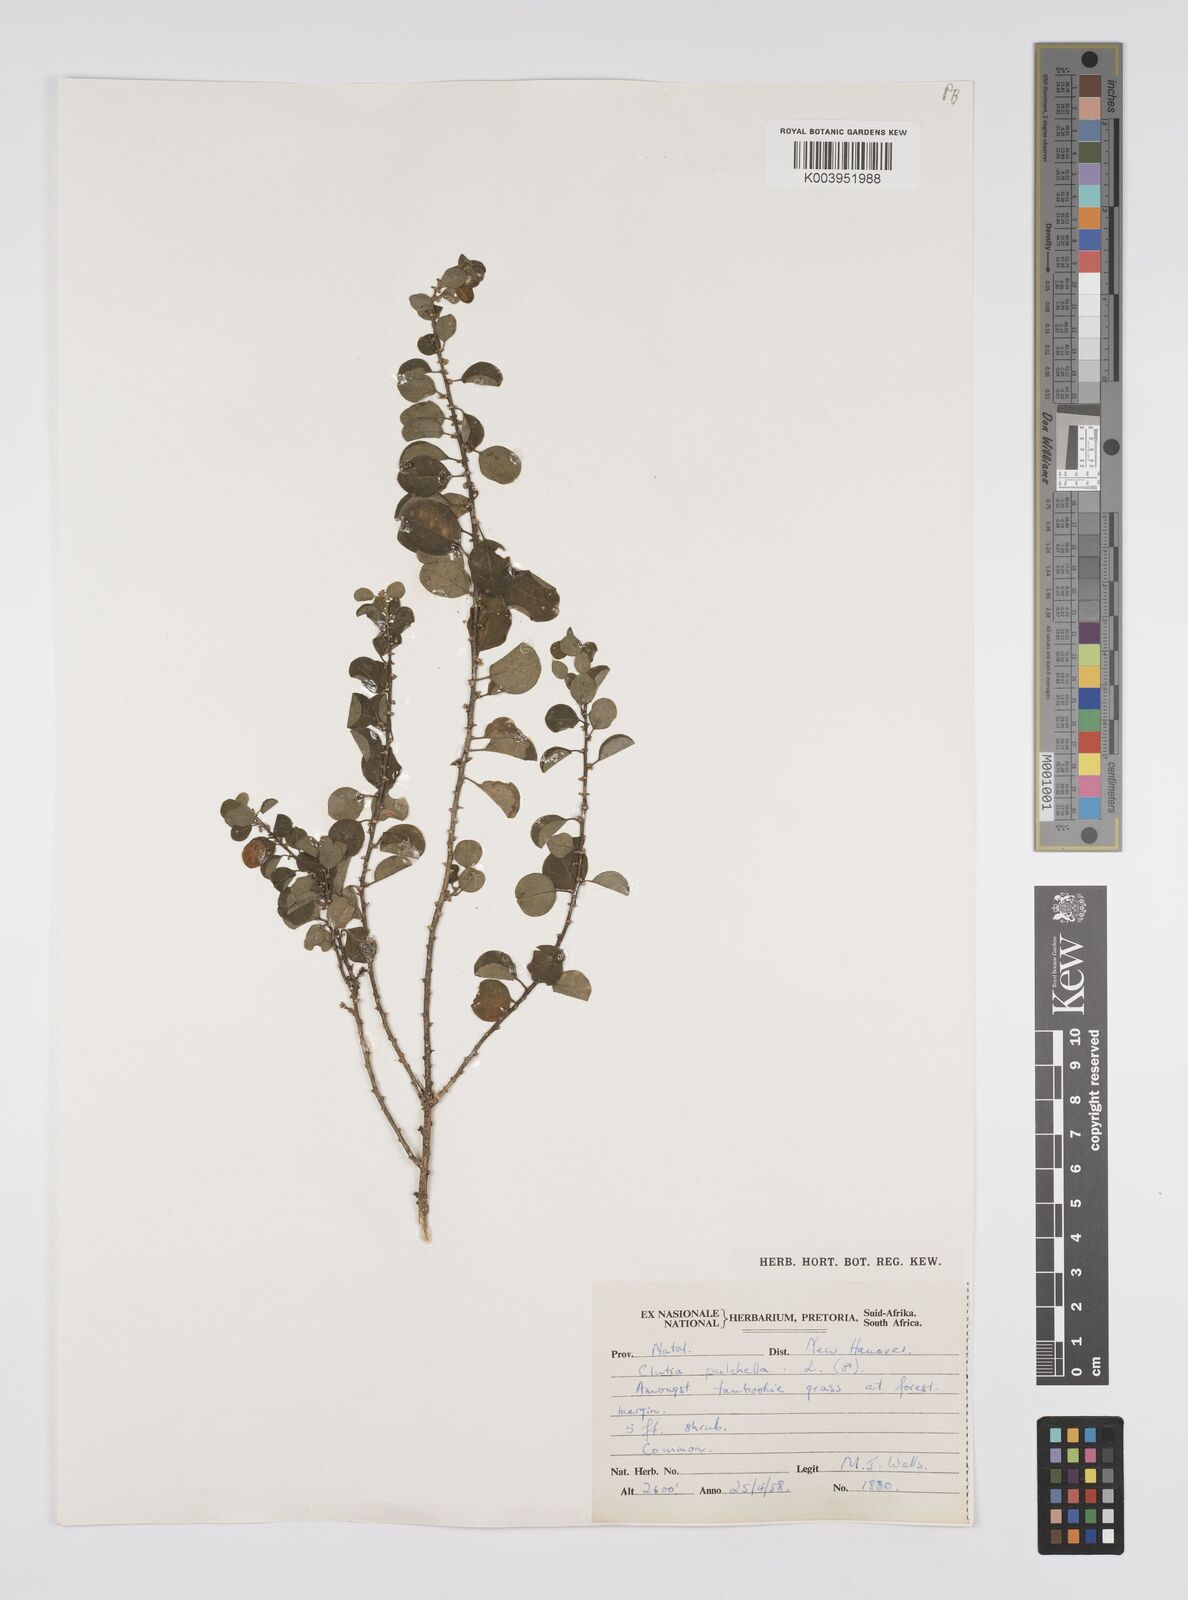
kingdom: Plantae
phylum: Tracheophyta
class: Magnoliopsida
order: Malpighiales
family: Peraceae
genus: Clutia
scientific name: Clutia pulchella
